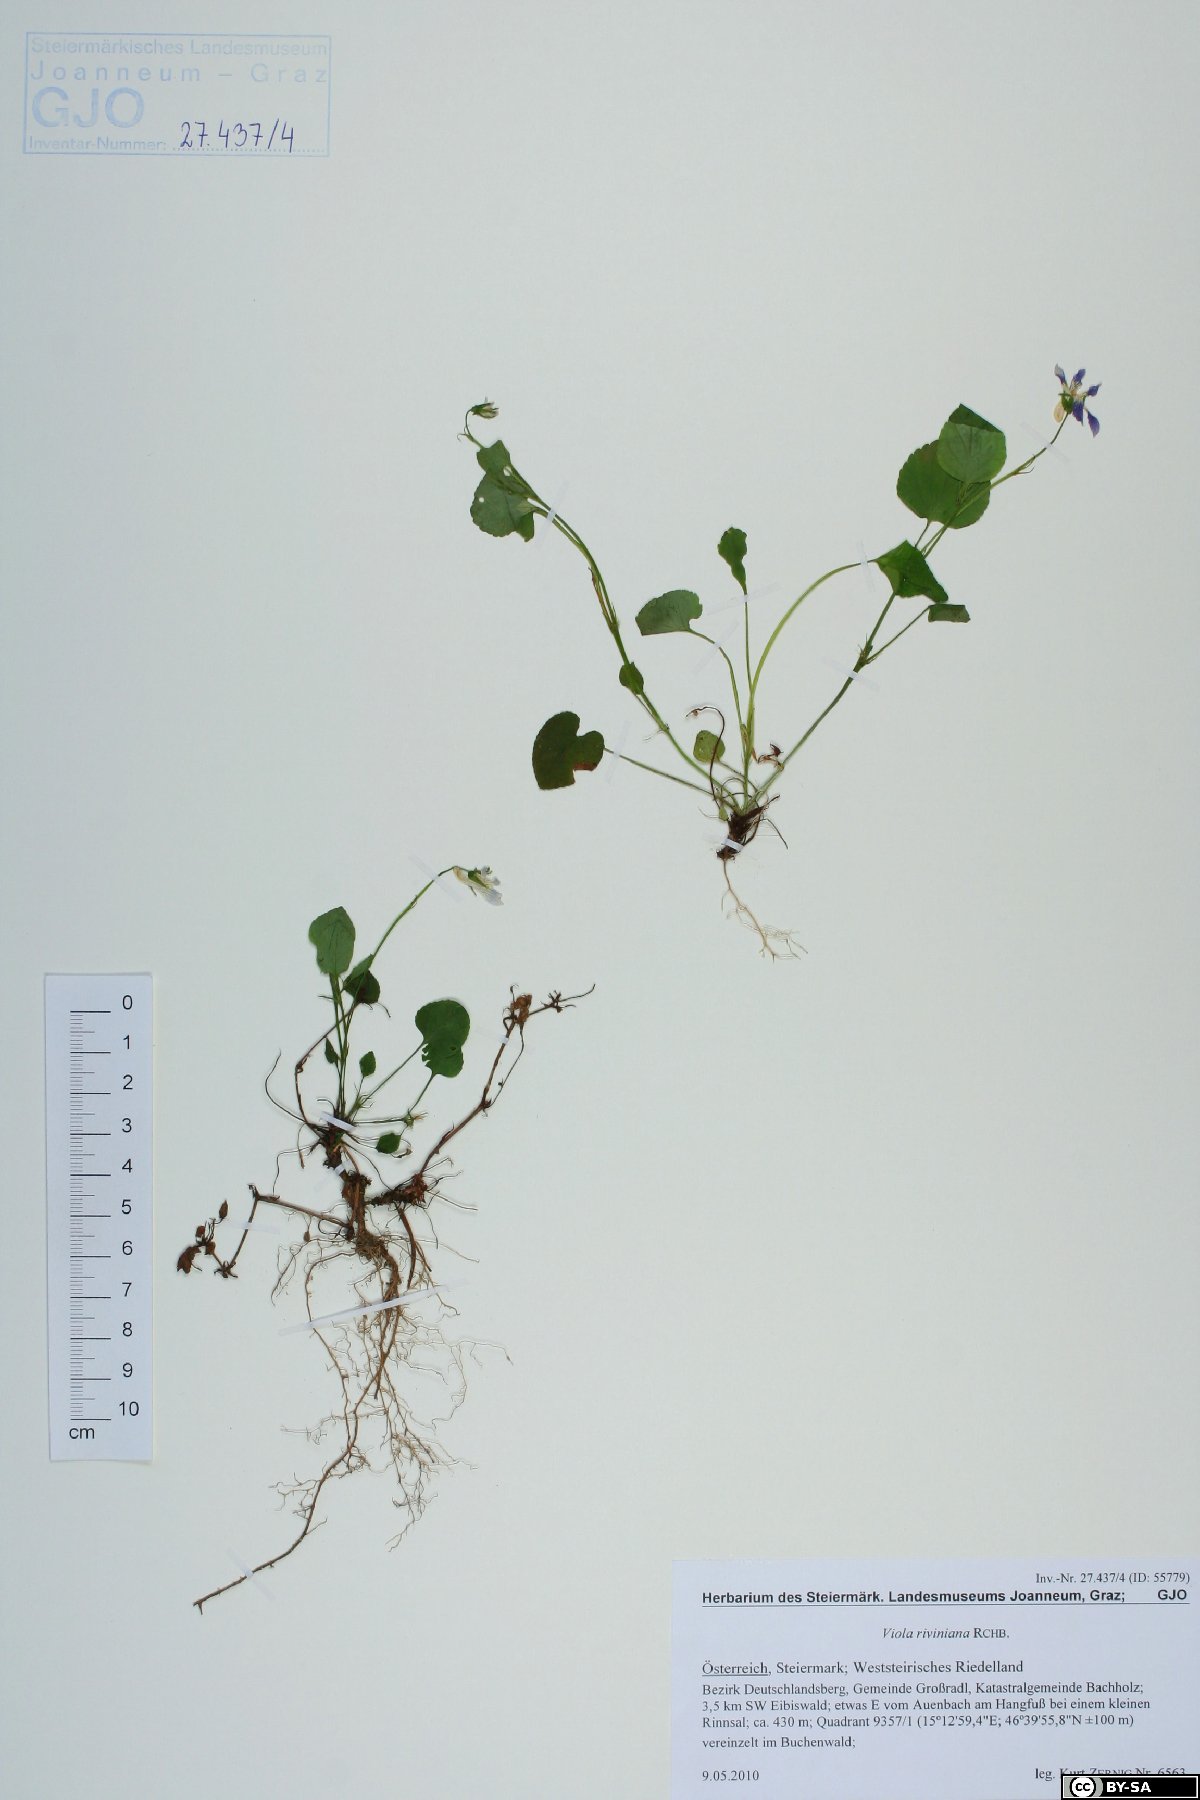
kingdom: Plantae
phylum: Tracheophyta
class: Magnoliopsida
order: Malpighiales
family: Violaceae
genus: Viola
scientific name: Viola riviniana
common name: Common dog-violet
